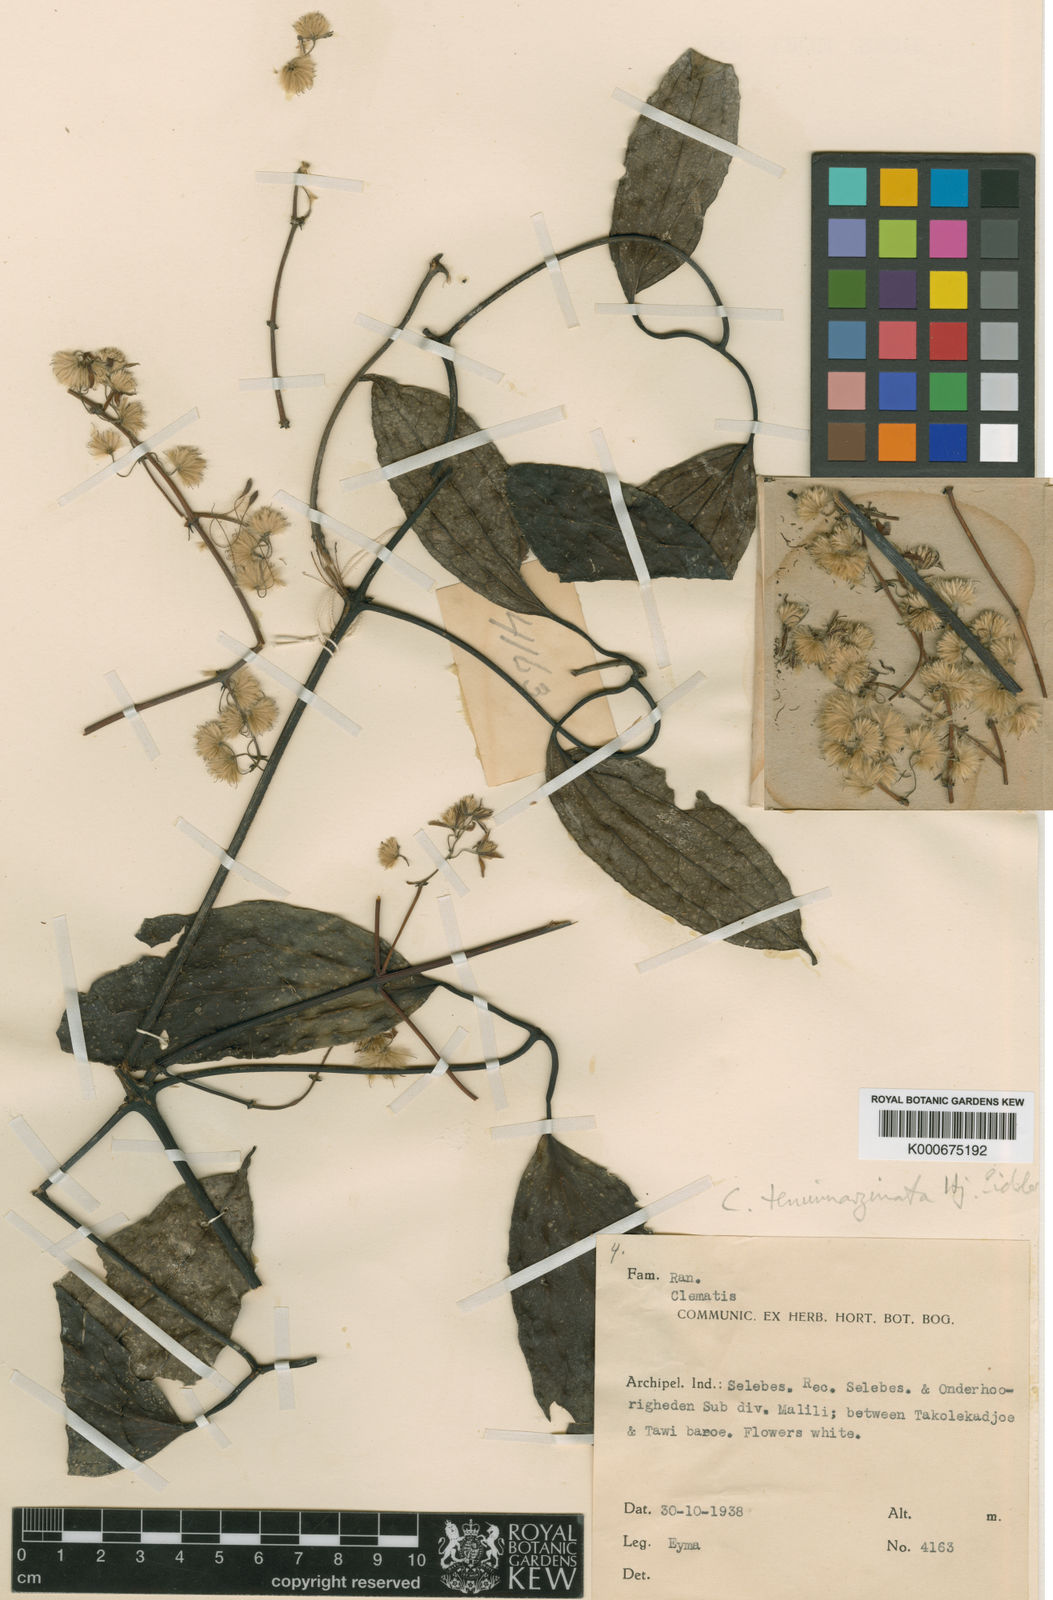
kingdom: Plantae
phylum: Tracheophyta
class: Magnoliopsida
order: Ranunculales
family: Ranunculaceae
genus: Clematis
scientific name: Clematis tenuimarginata
